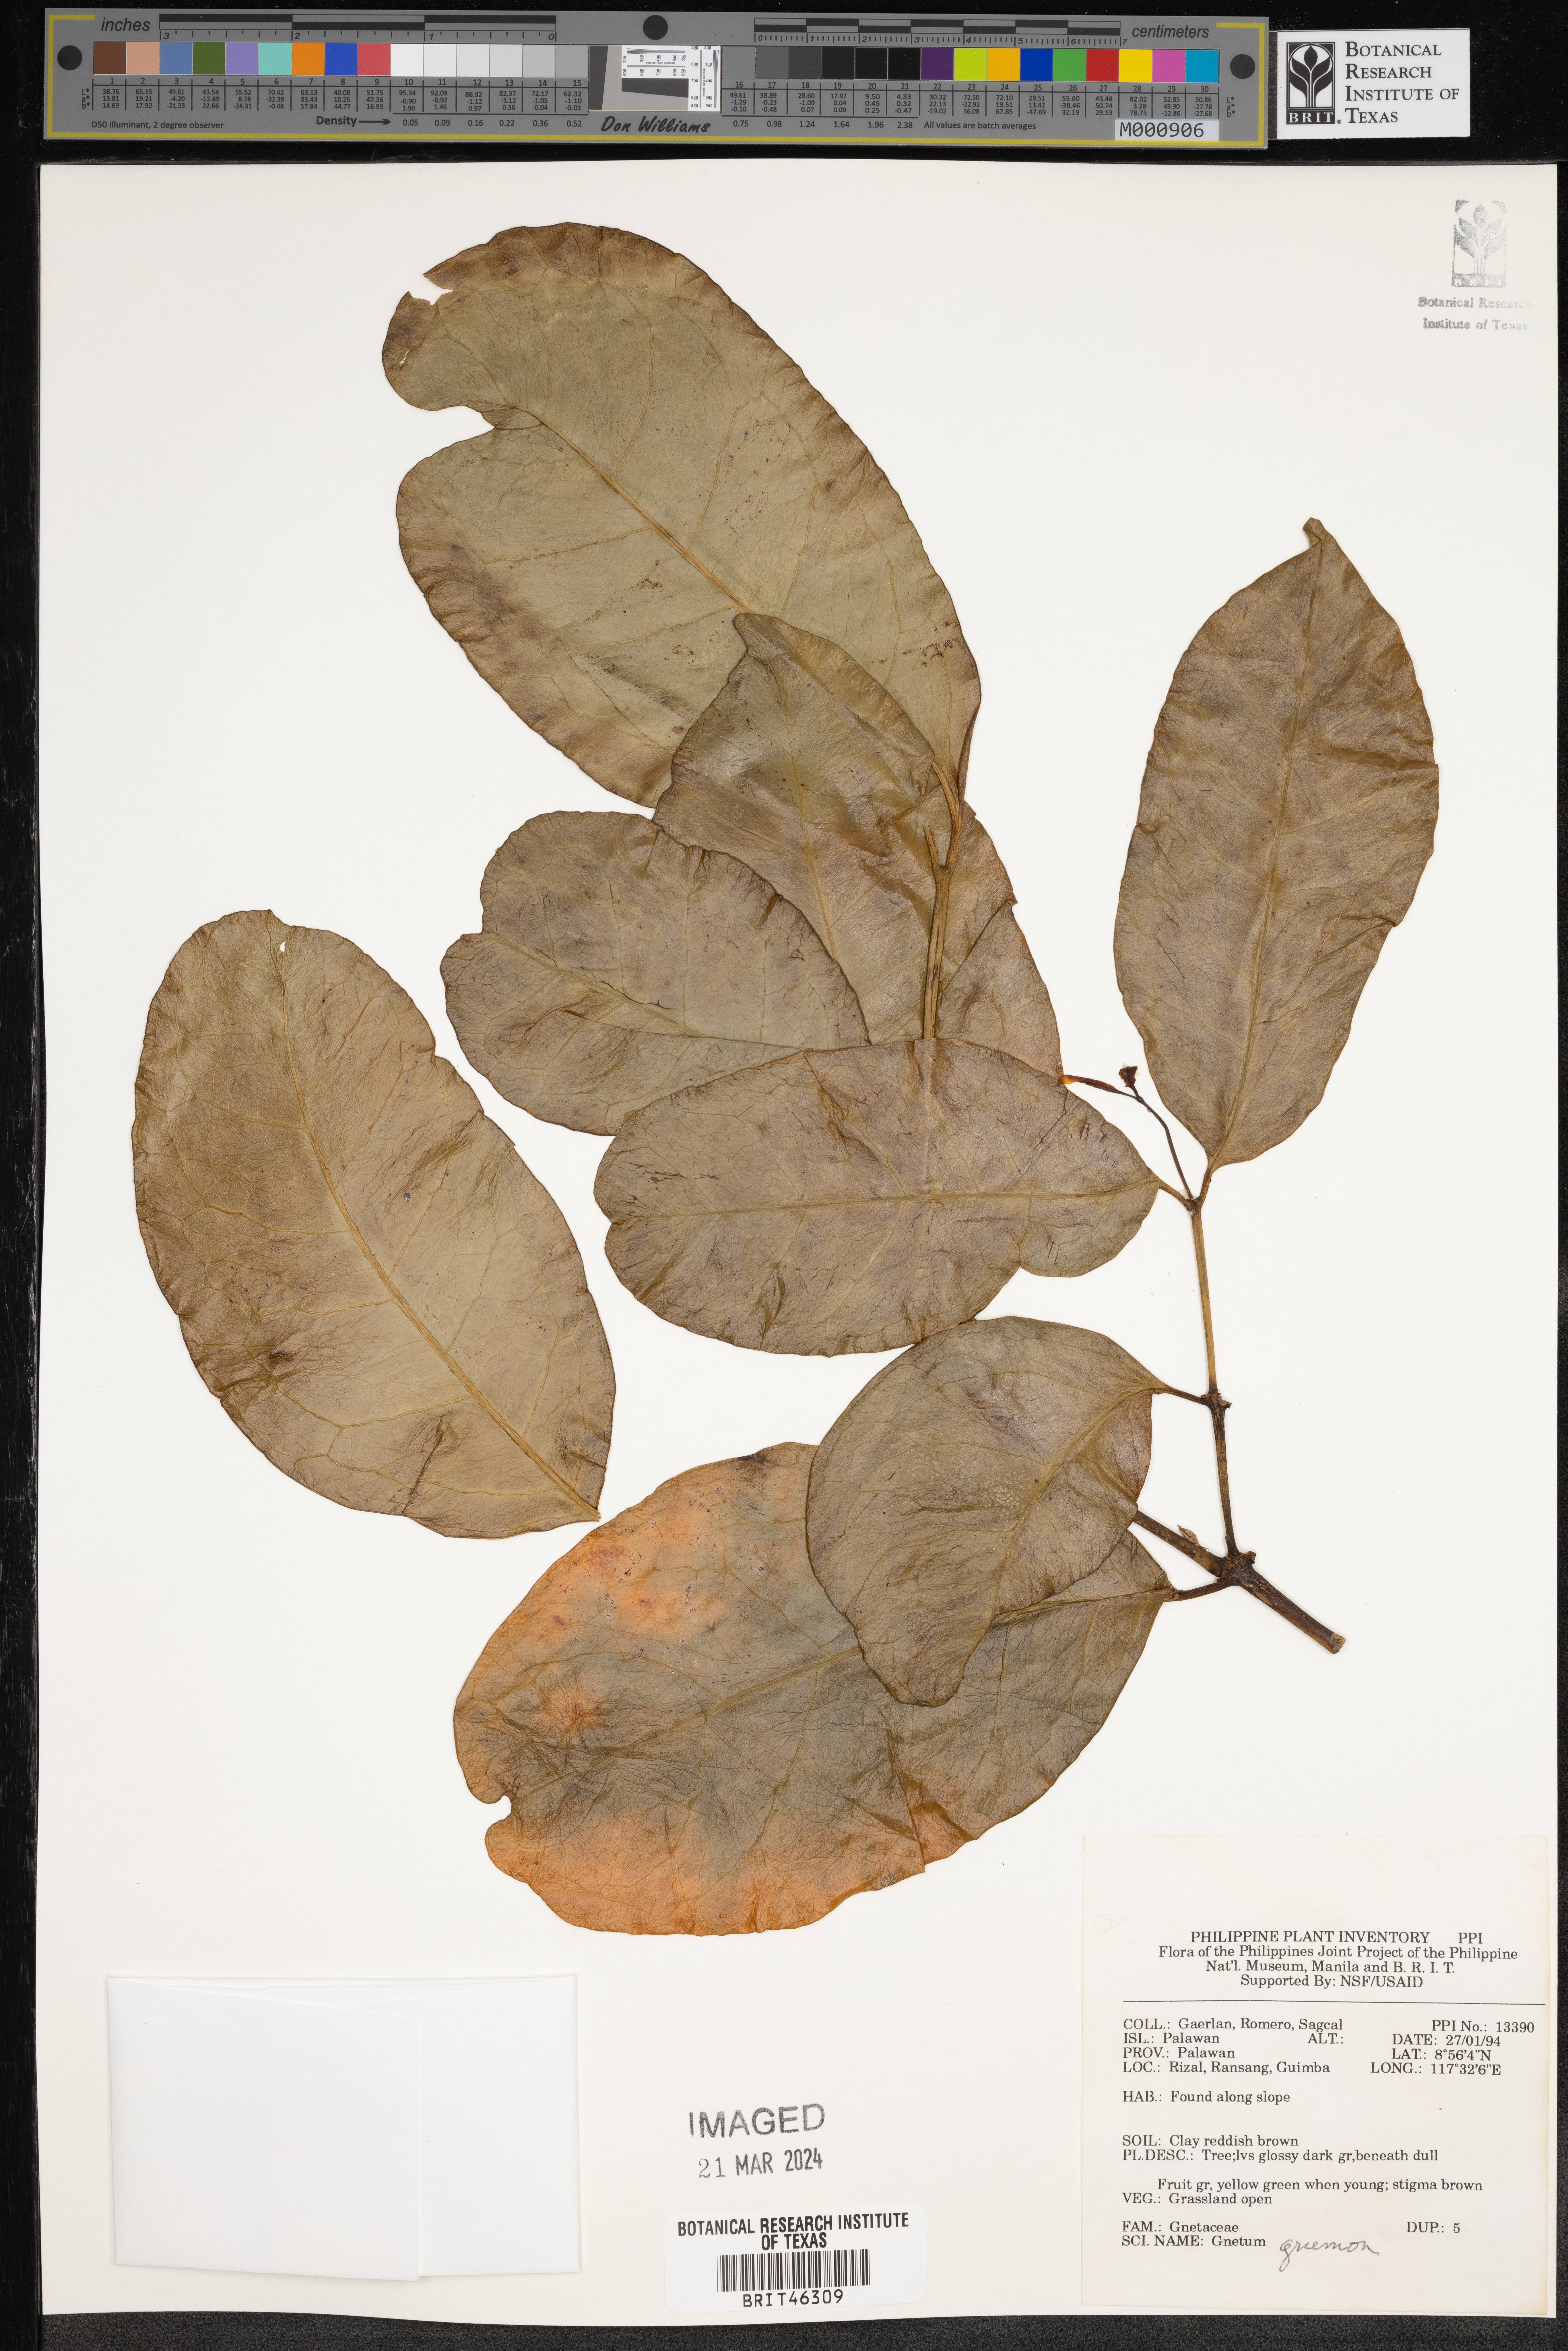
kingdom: Plantae
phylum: Tracheophyta
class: Gnetopsida
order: Gnetales
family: Gnetaceae
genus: Gnetum
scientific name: Gnetum gnemon
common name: Spanish joint-fir
